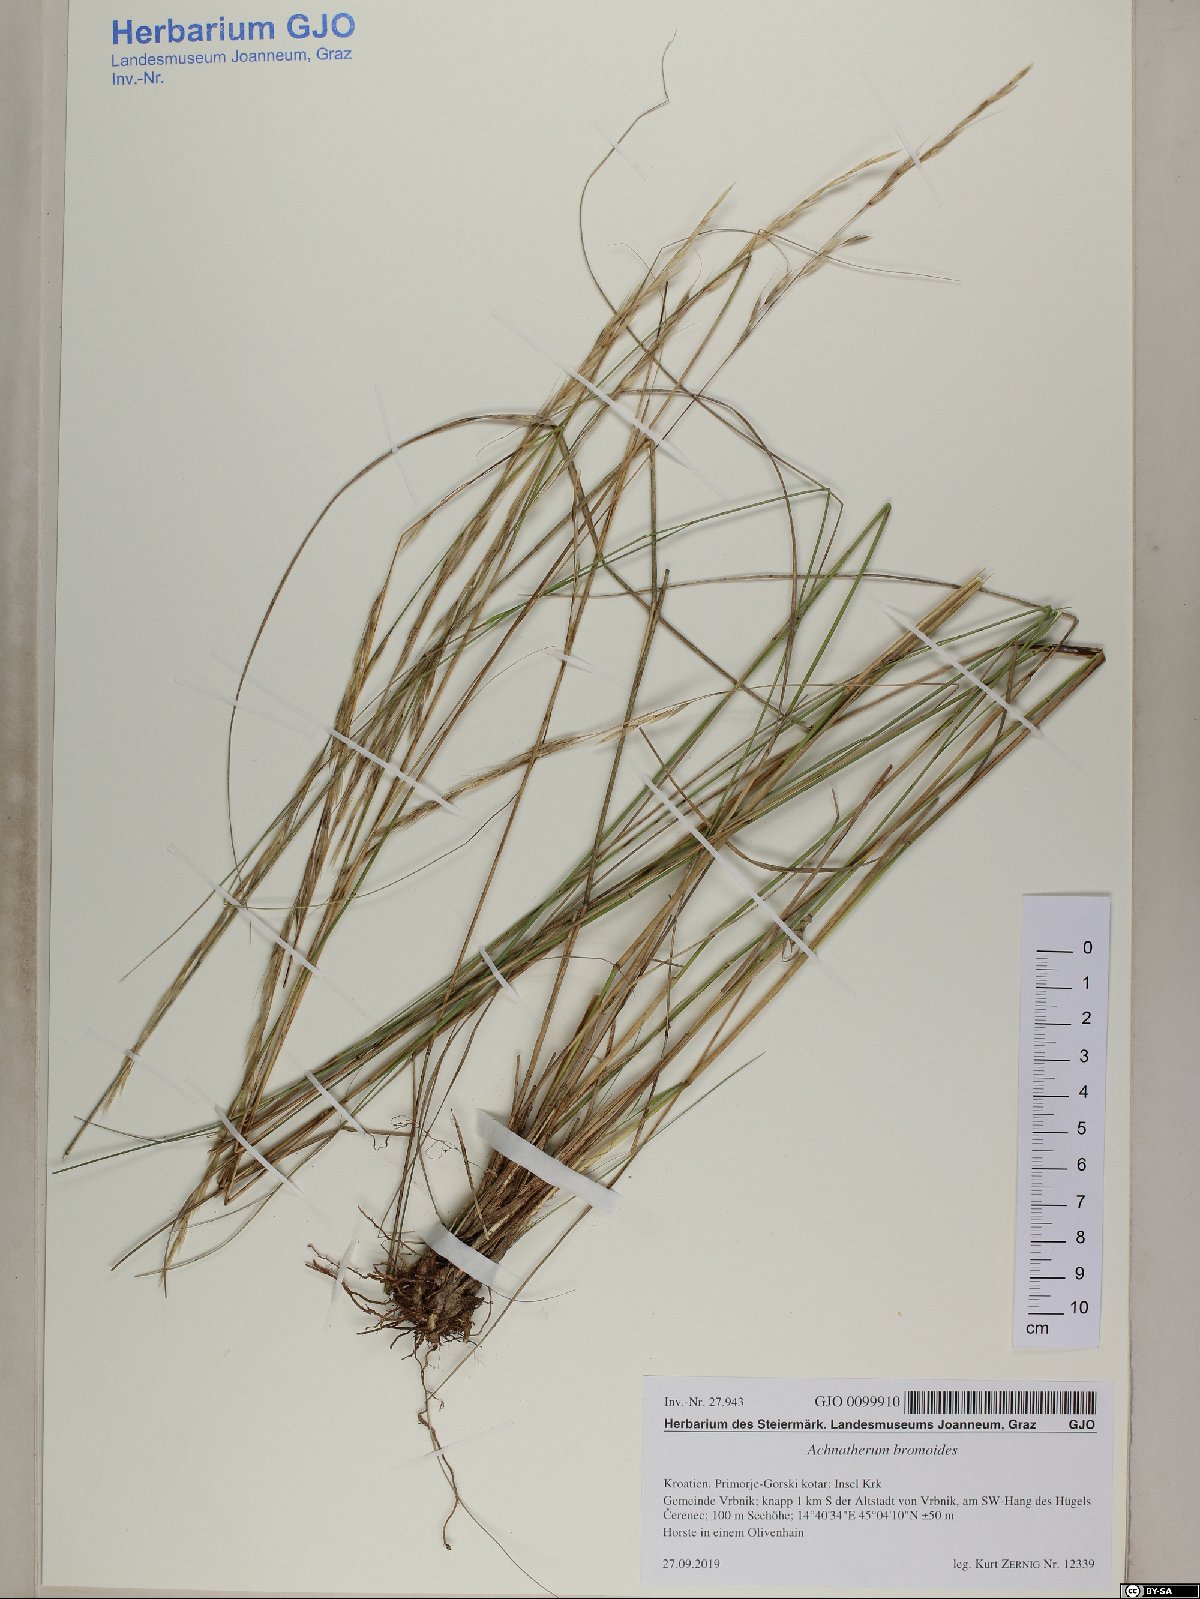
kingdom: Plantae
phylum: Tracheophyta
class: Liliopsida
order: Poales
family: Poaceae
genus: Achnatherum
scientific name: Achnatherum bromoides
